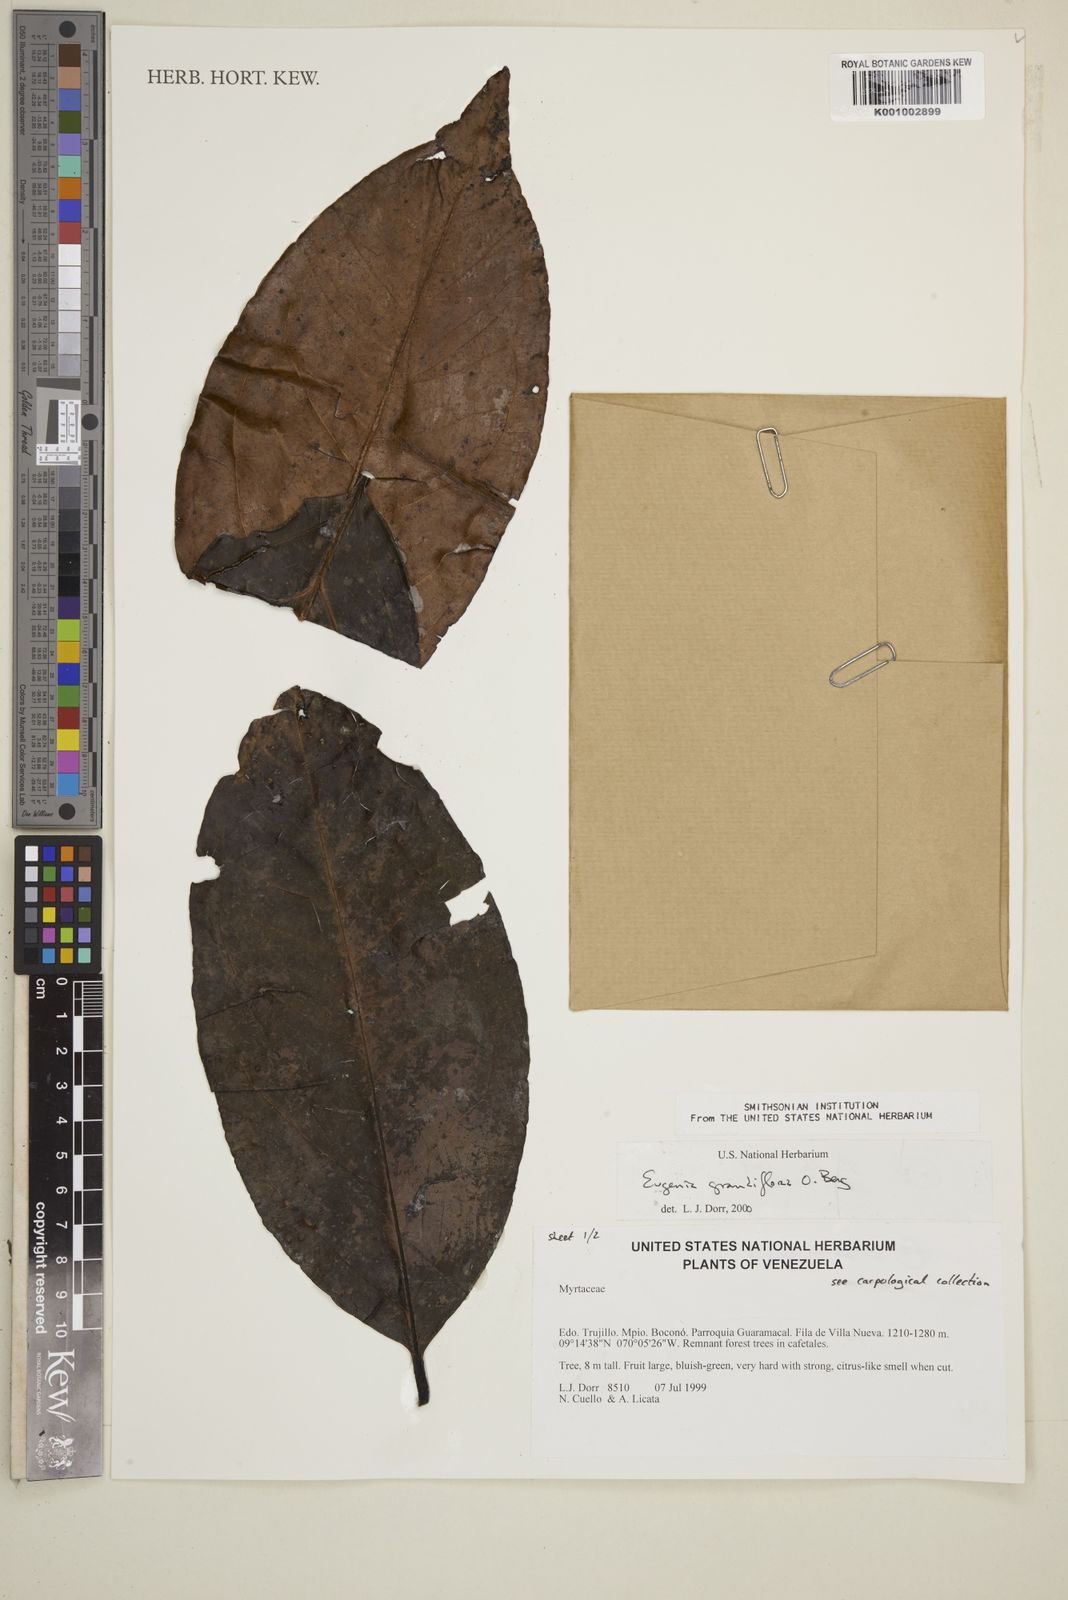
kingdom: Plantae
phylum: Tracheophyta
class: Magnoliopsida
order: Myrtales
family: Myrtaceae
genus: Eugenia
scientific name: Eugenia grandiflora
